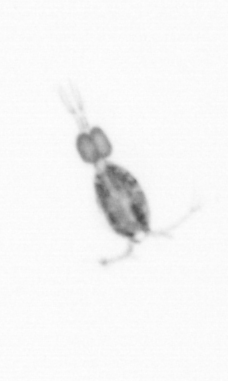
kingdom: Animalia
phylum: Arthropoda
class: Copepoda
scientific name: Copepoda
